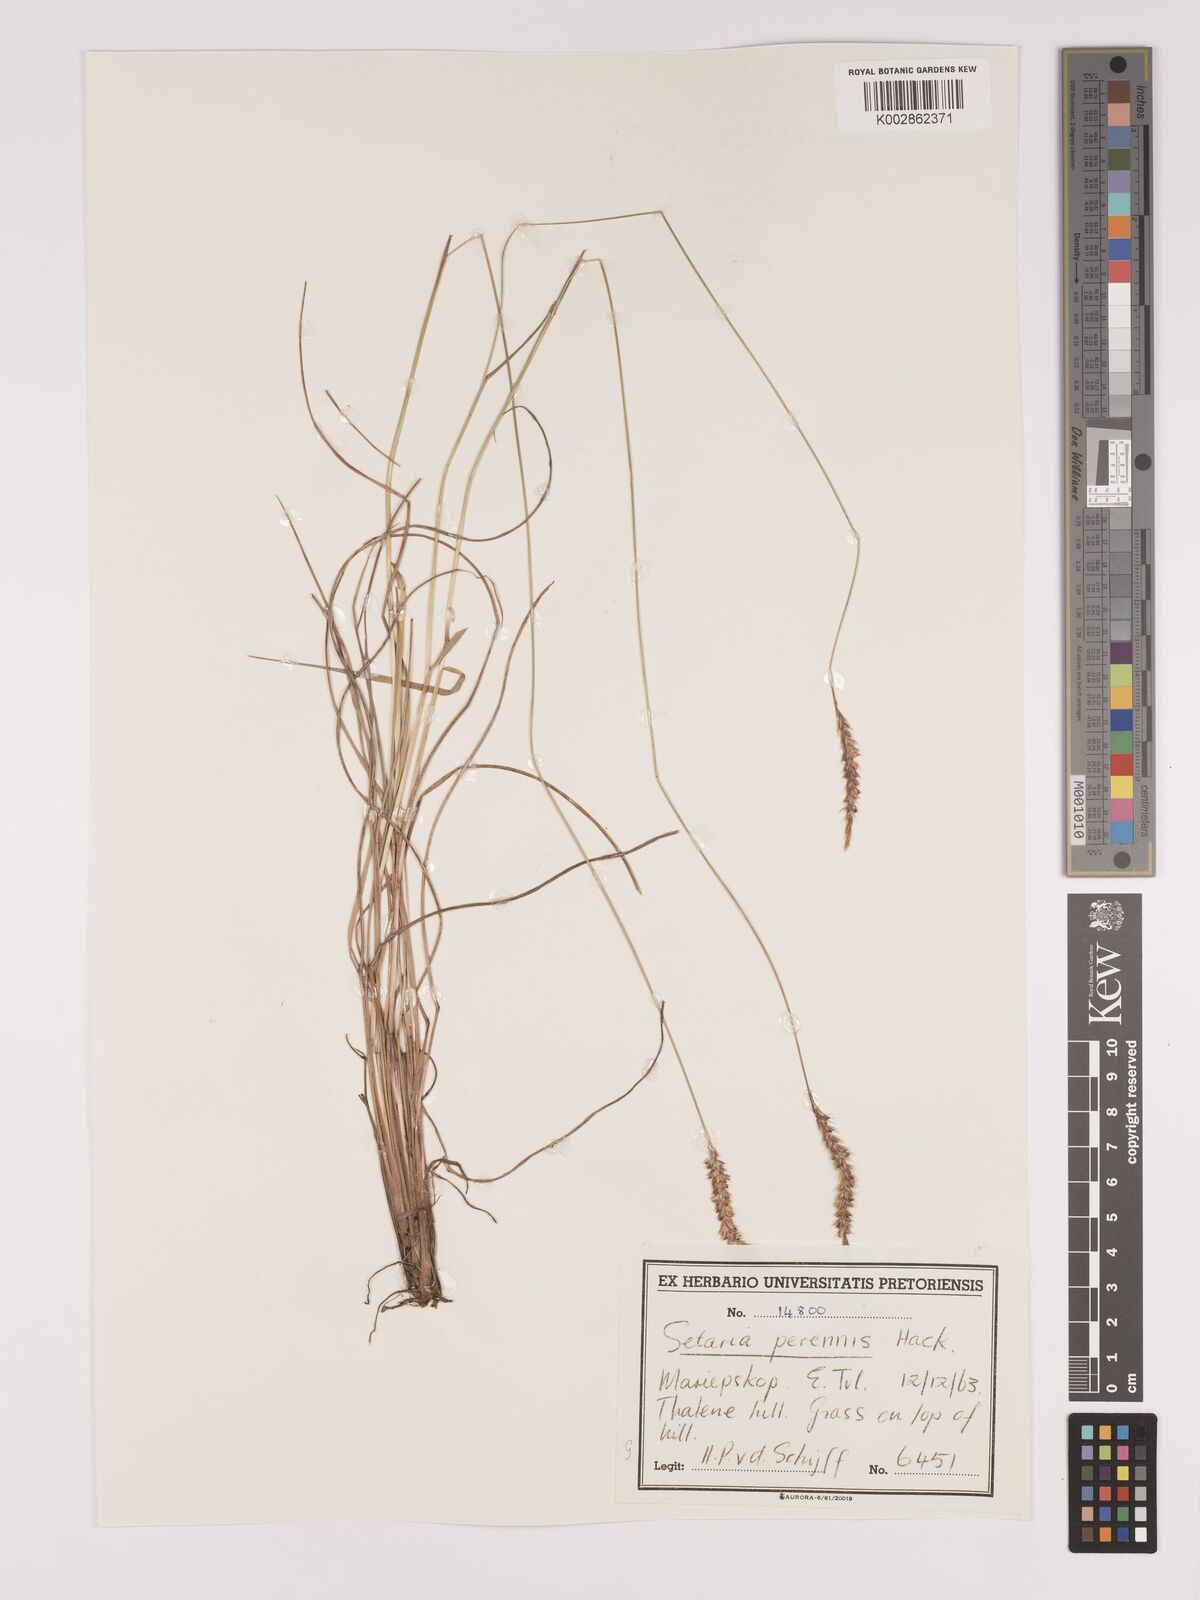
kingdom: Plantae
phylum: Tracheophyta
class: Liliopsida
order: Poales
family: Poaceae
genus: Setaria
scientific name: Setaria
